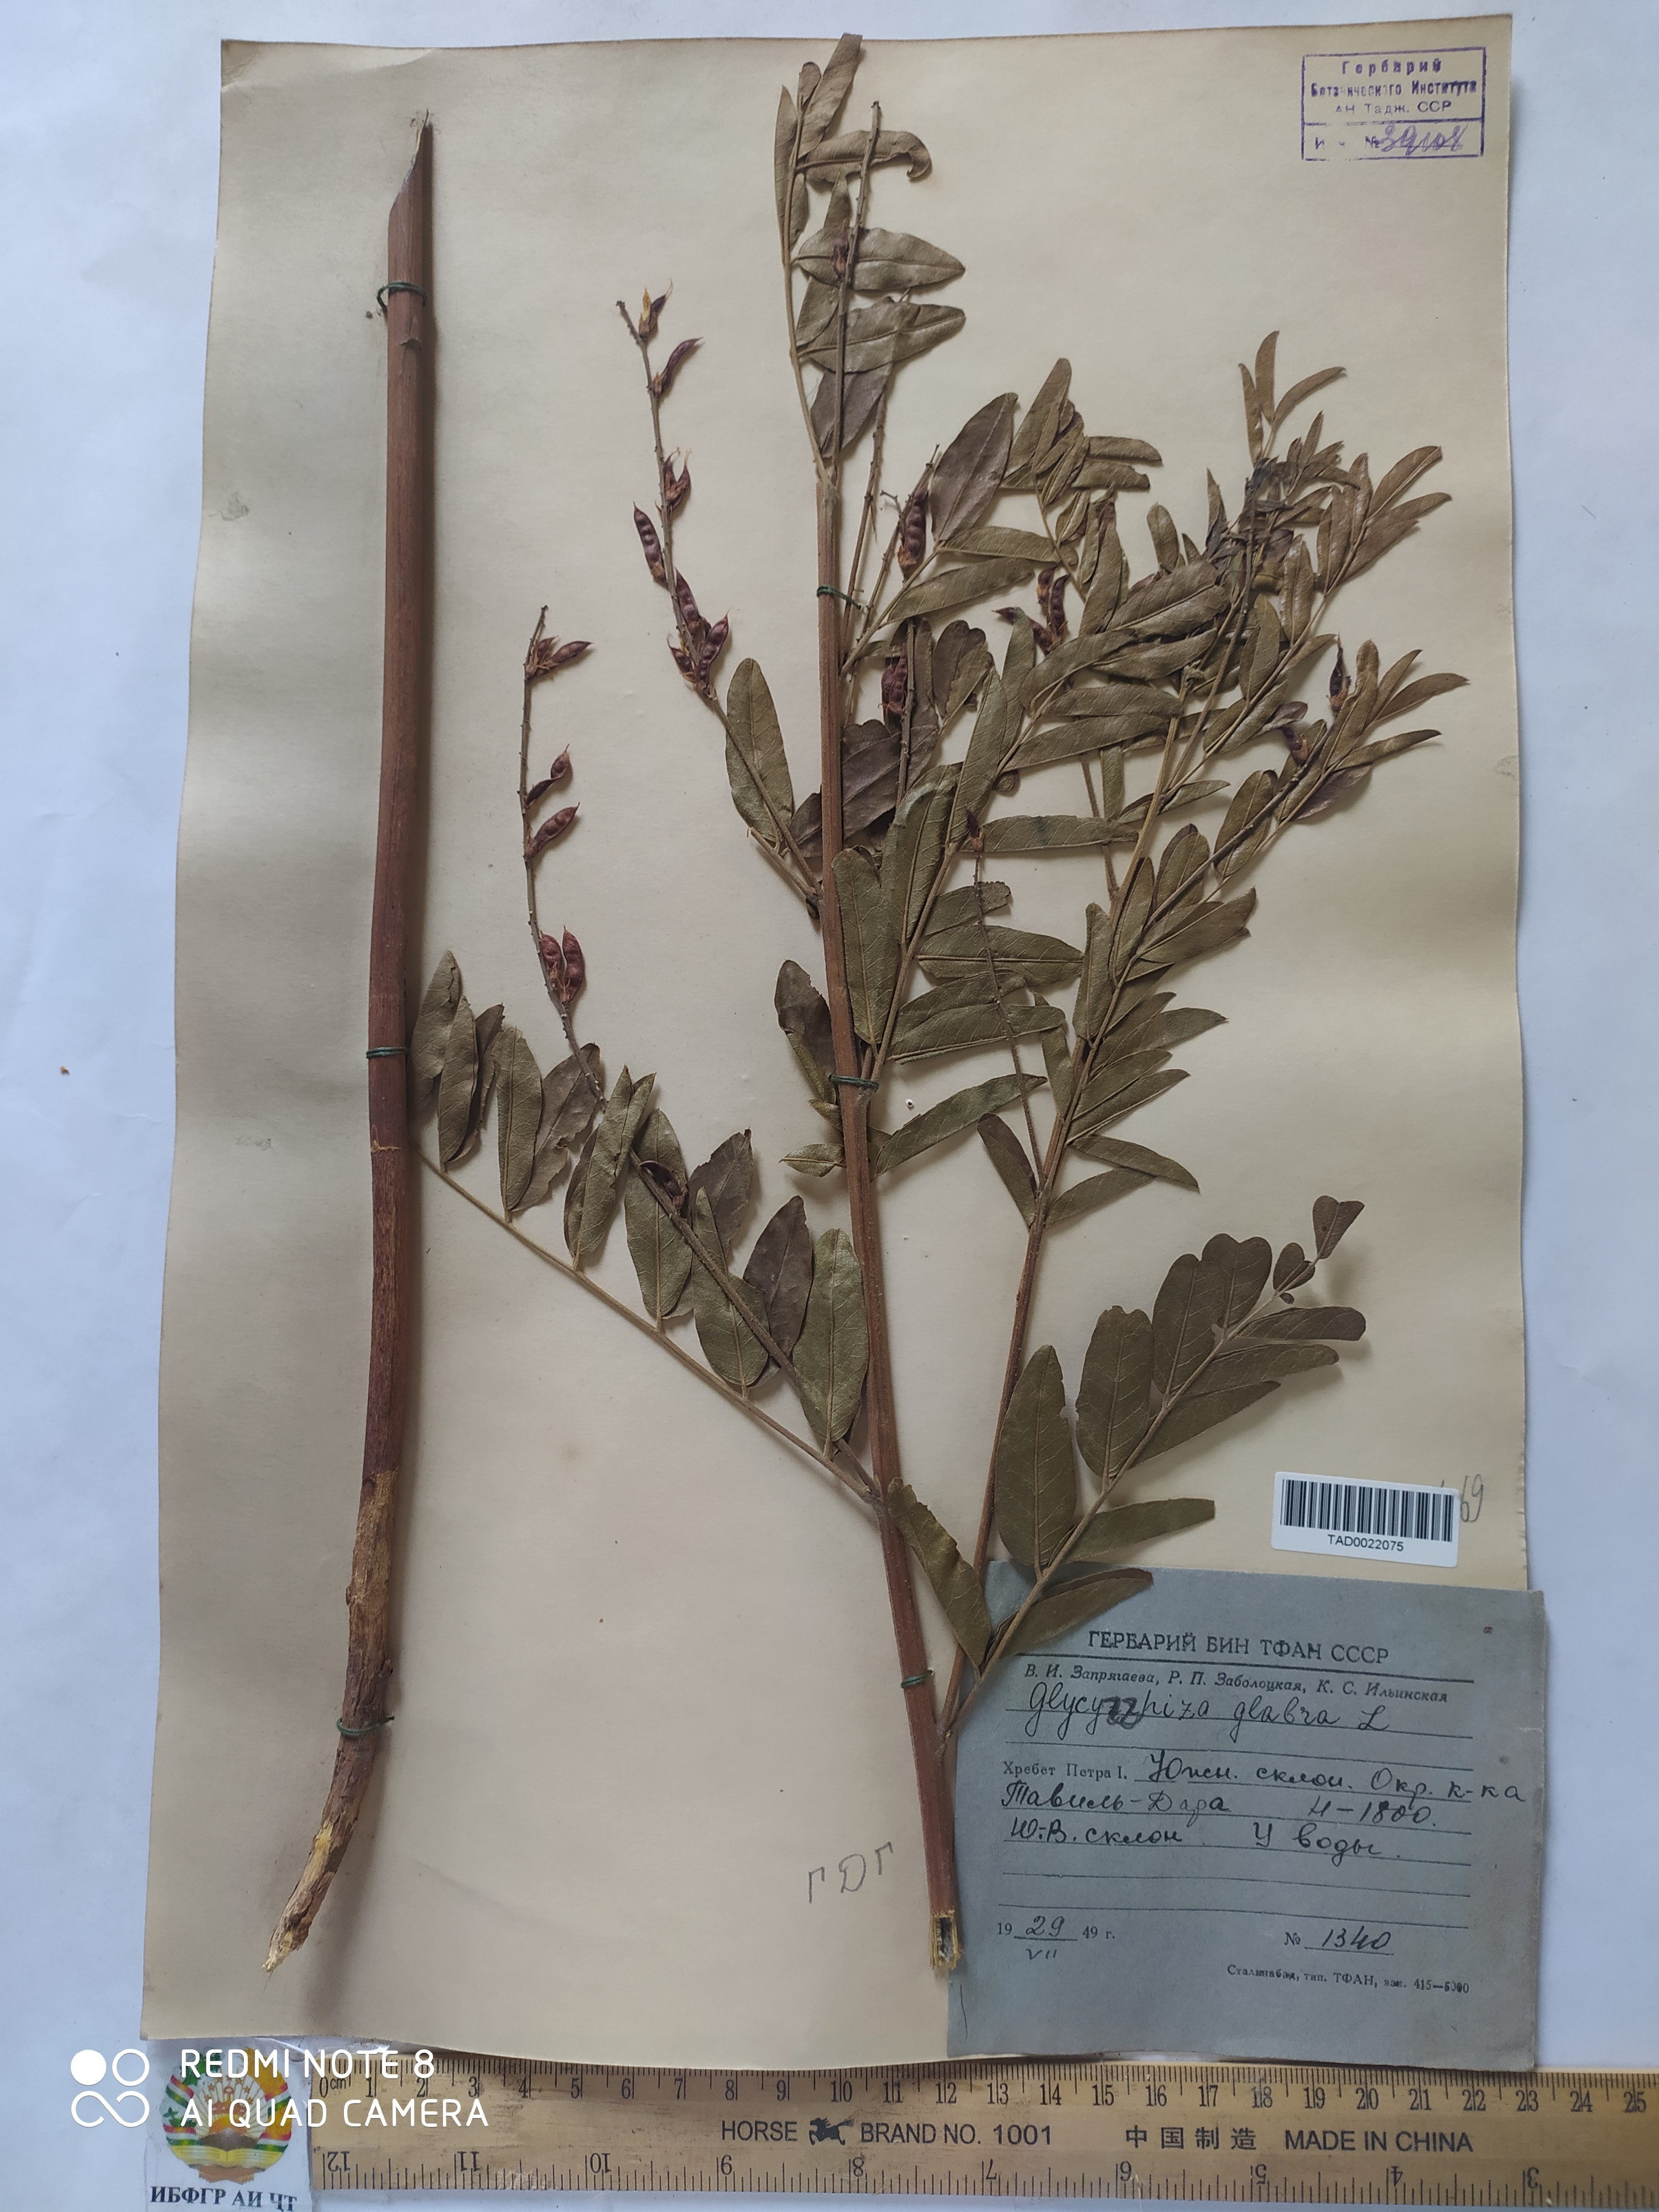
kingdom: Plantae
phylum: Tracheophyta
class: Magnoliopsida
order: Fabales
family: Fabaceae
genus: Glycyrrhiza
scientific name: Glycyrrhiza glabra
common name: Liquorice
